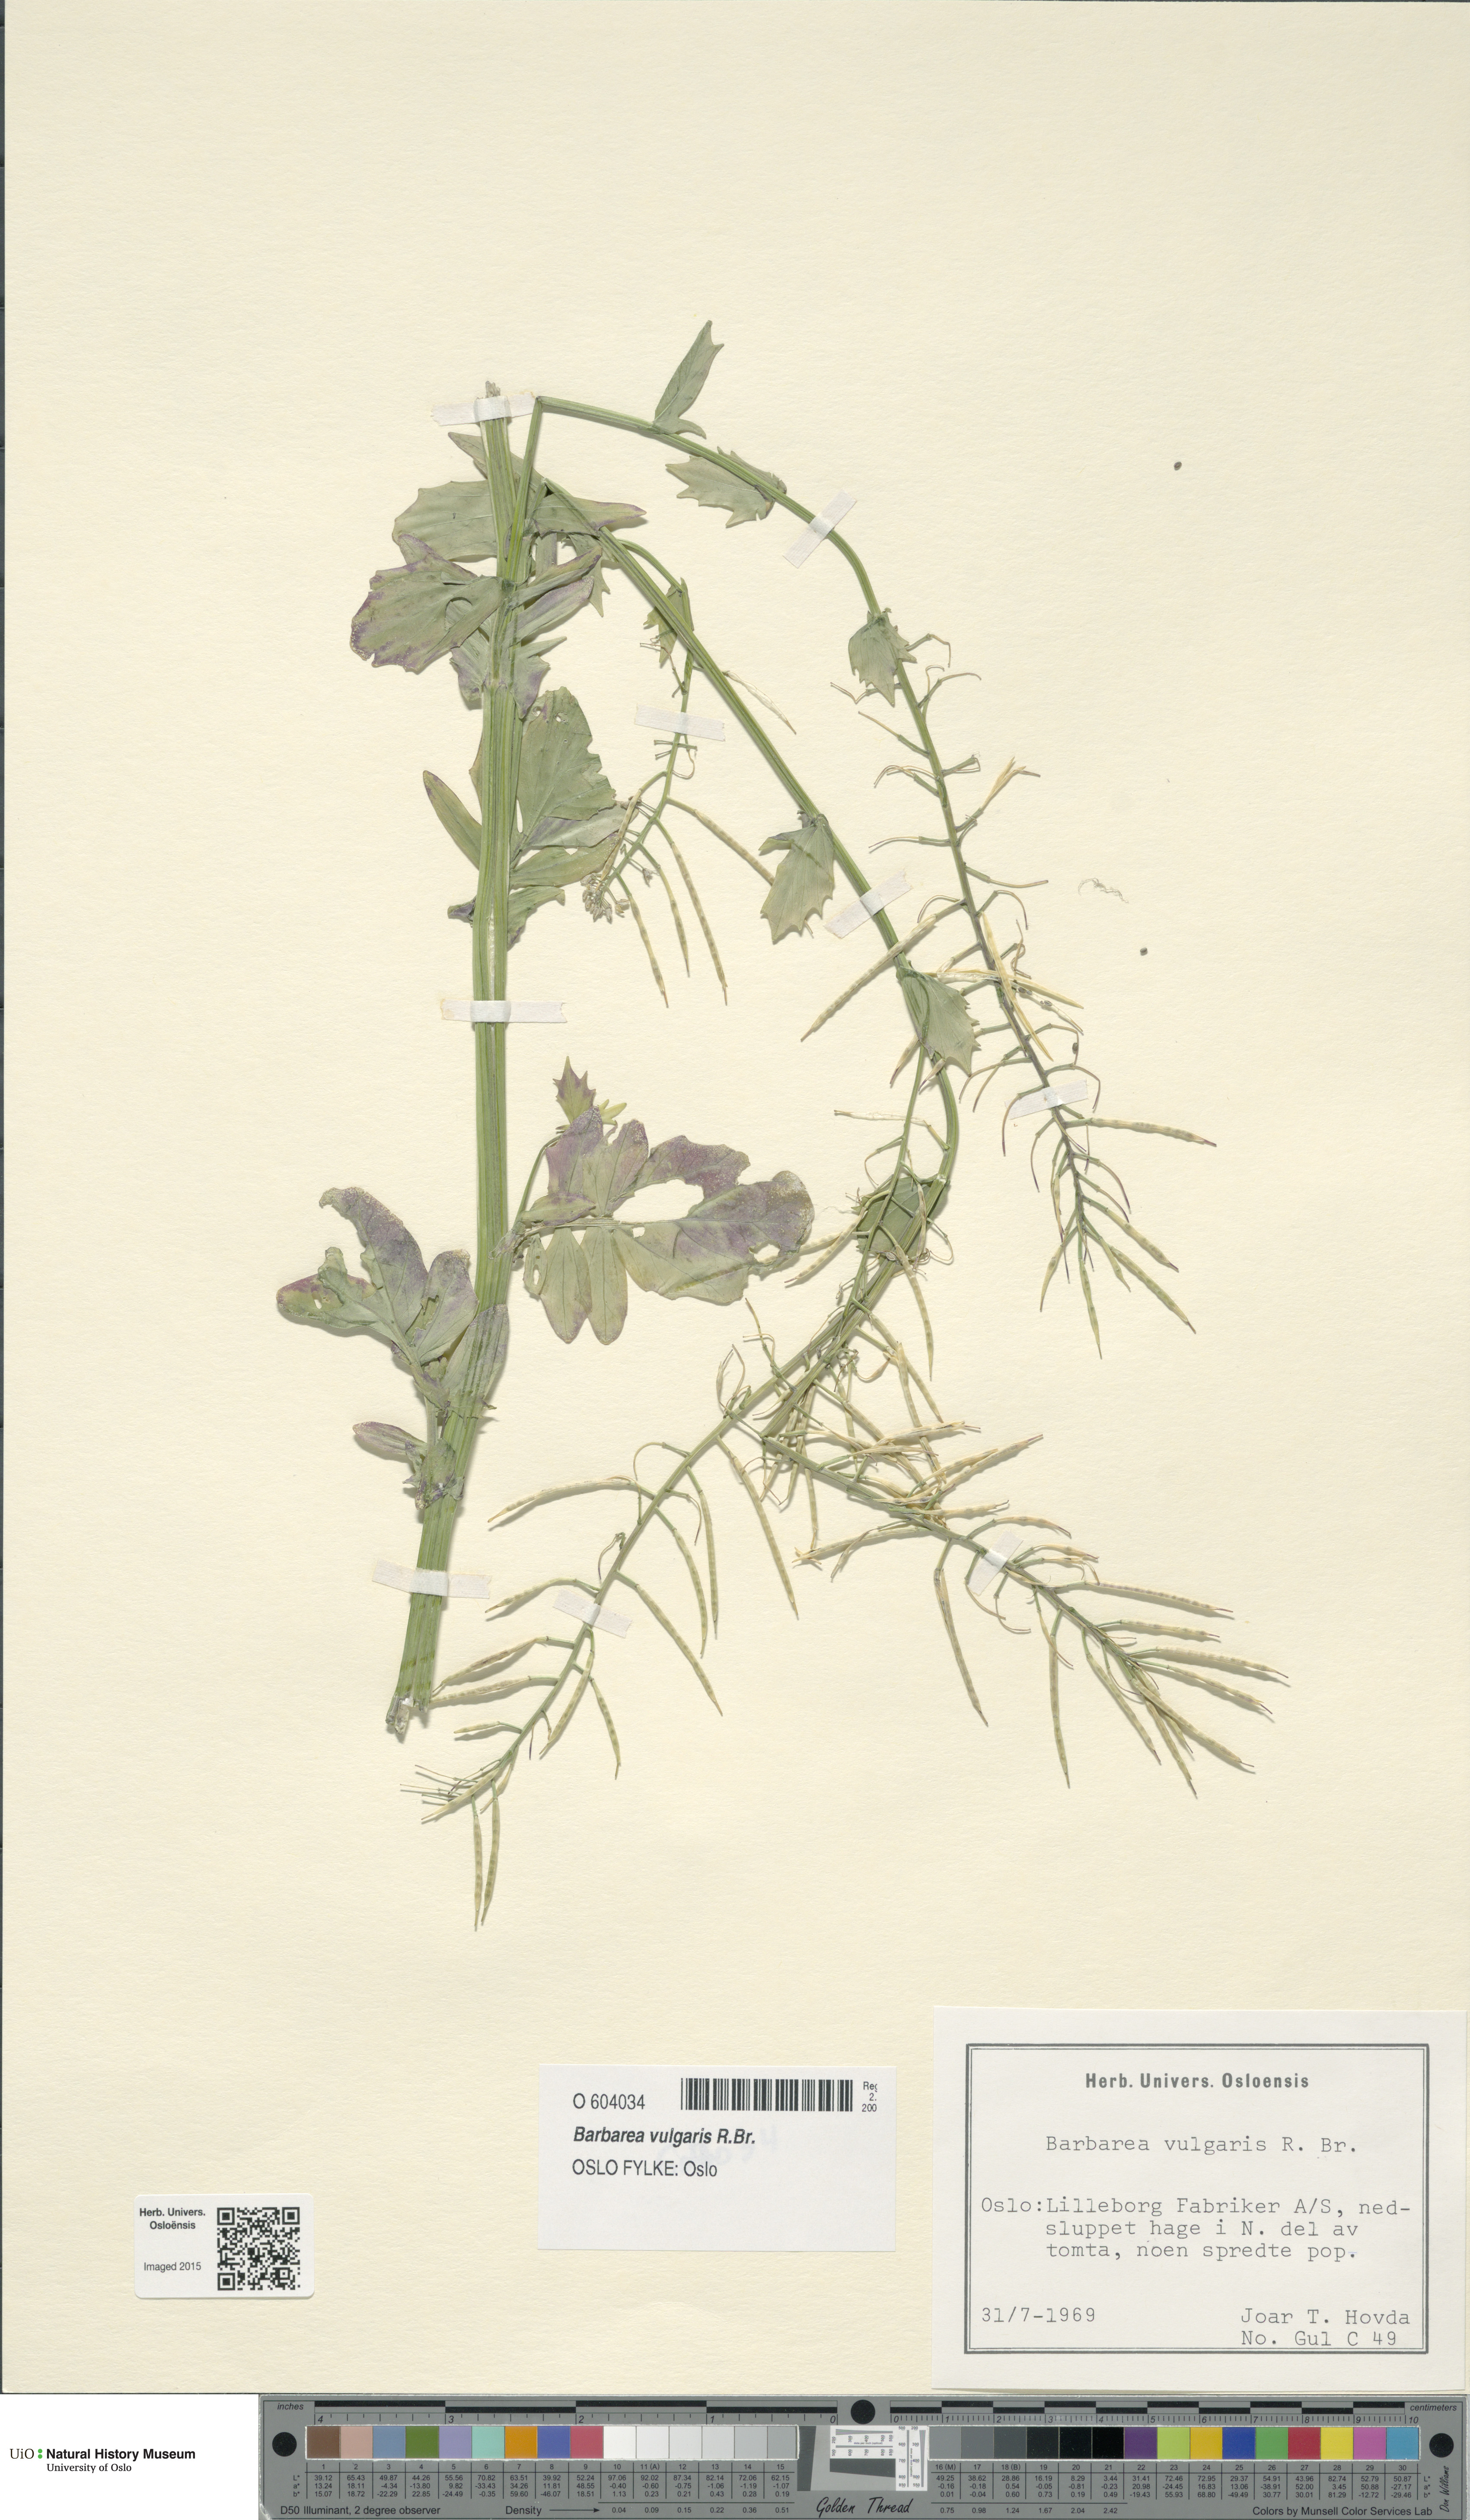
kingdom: Plantae
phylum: Tracheophyta
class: Magnoliopsida
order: Brassicales
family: Brassicaceae
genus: Barbarea
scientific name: Barbarea vulgaris
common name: Cressy-greens
